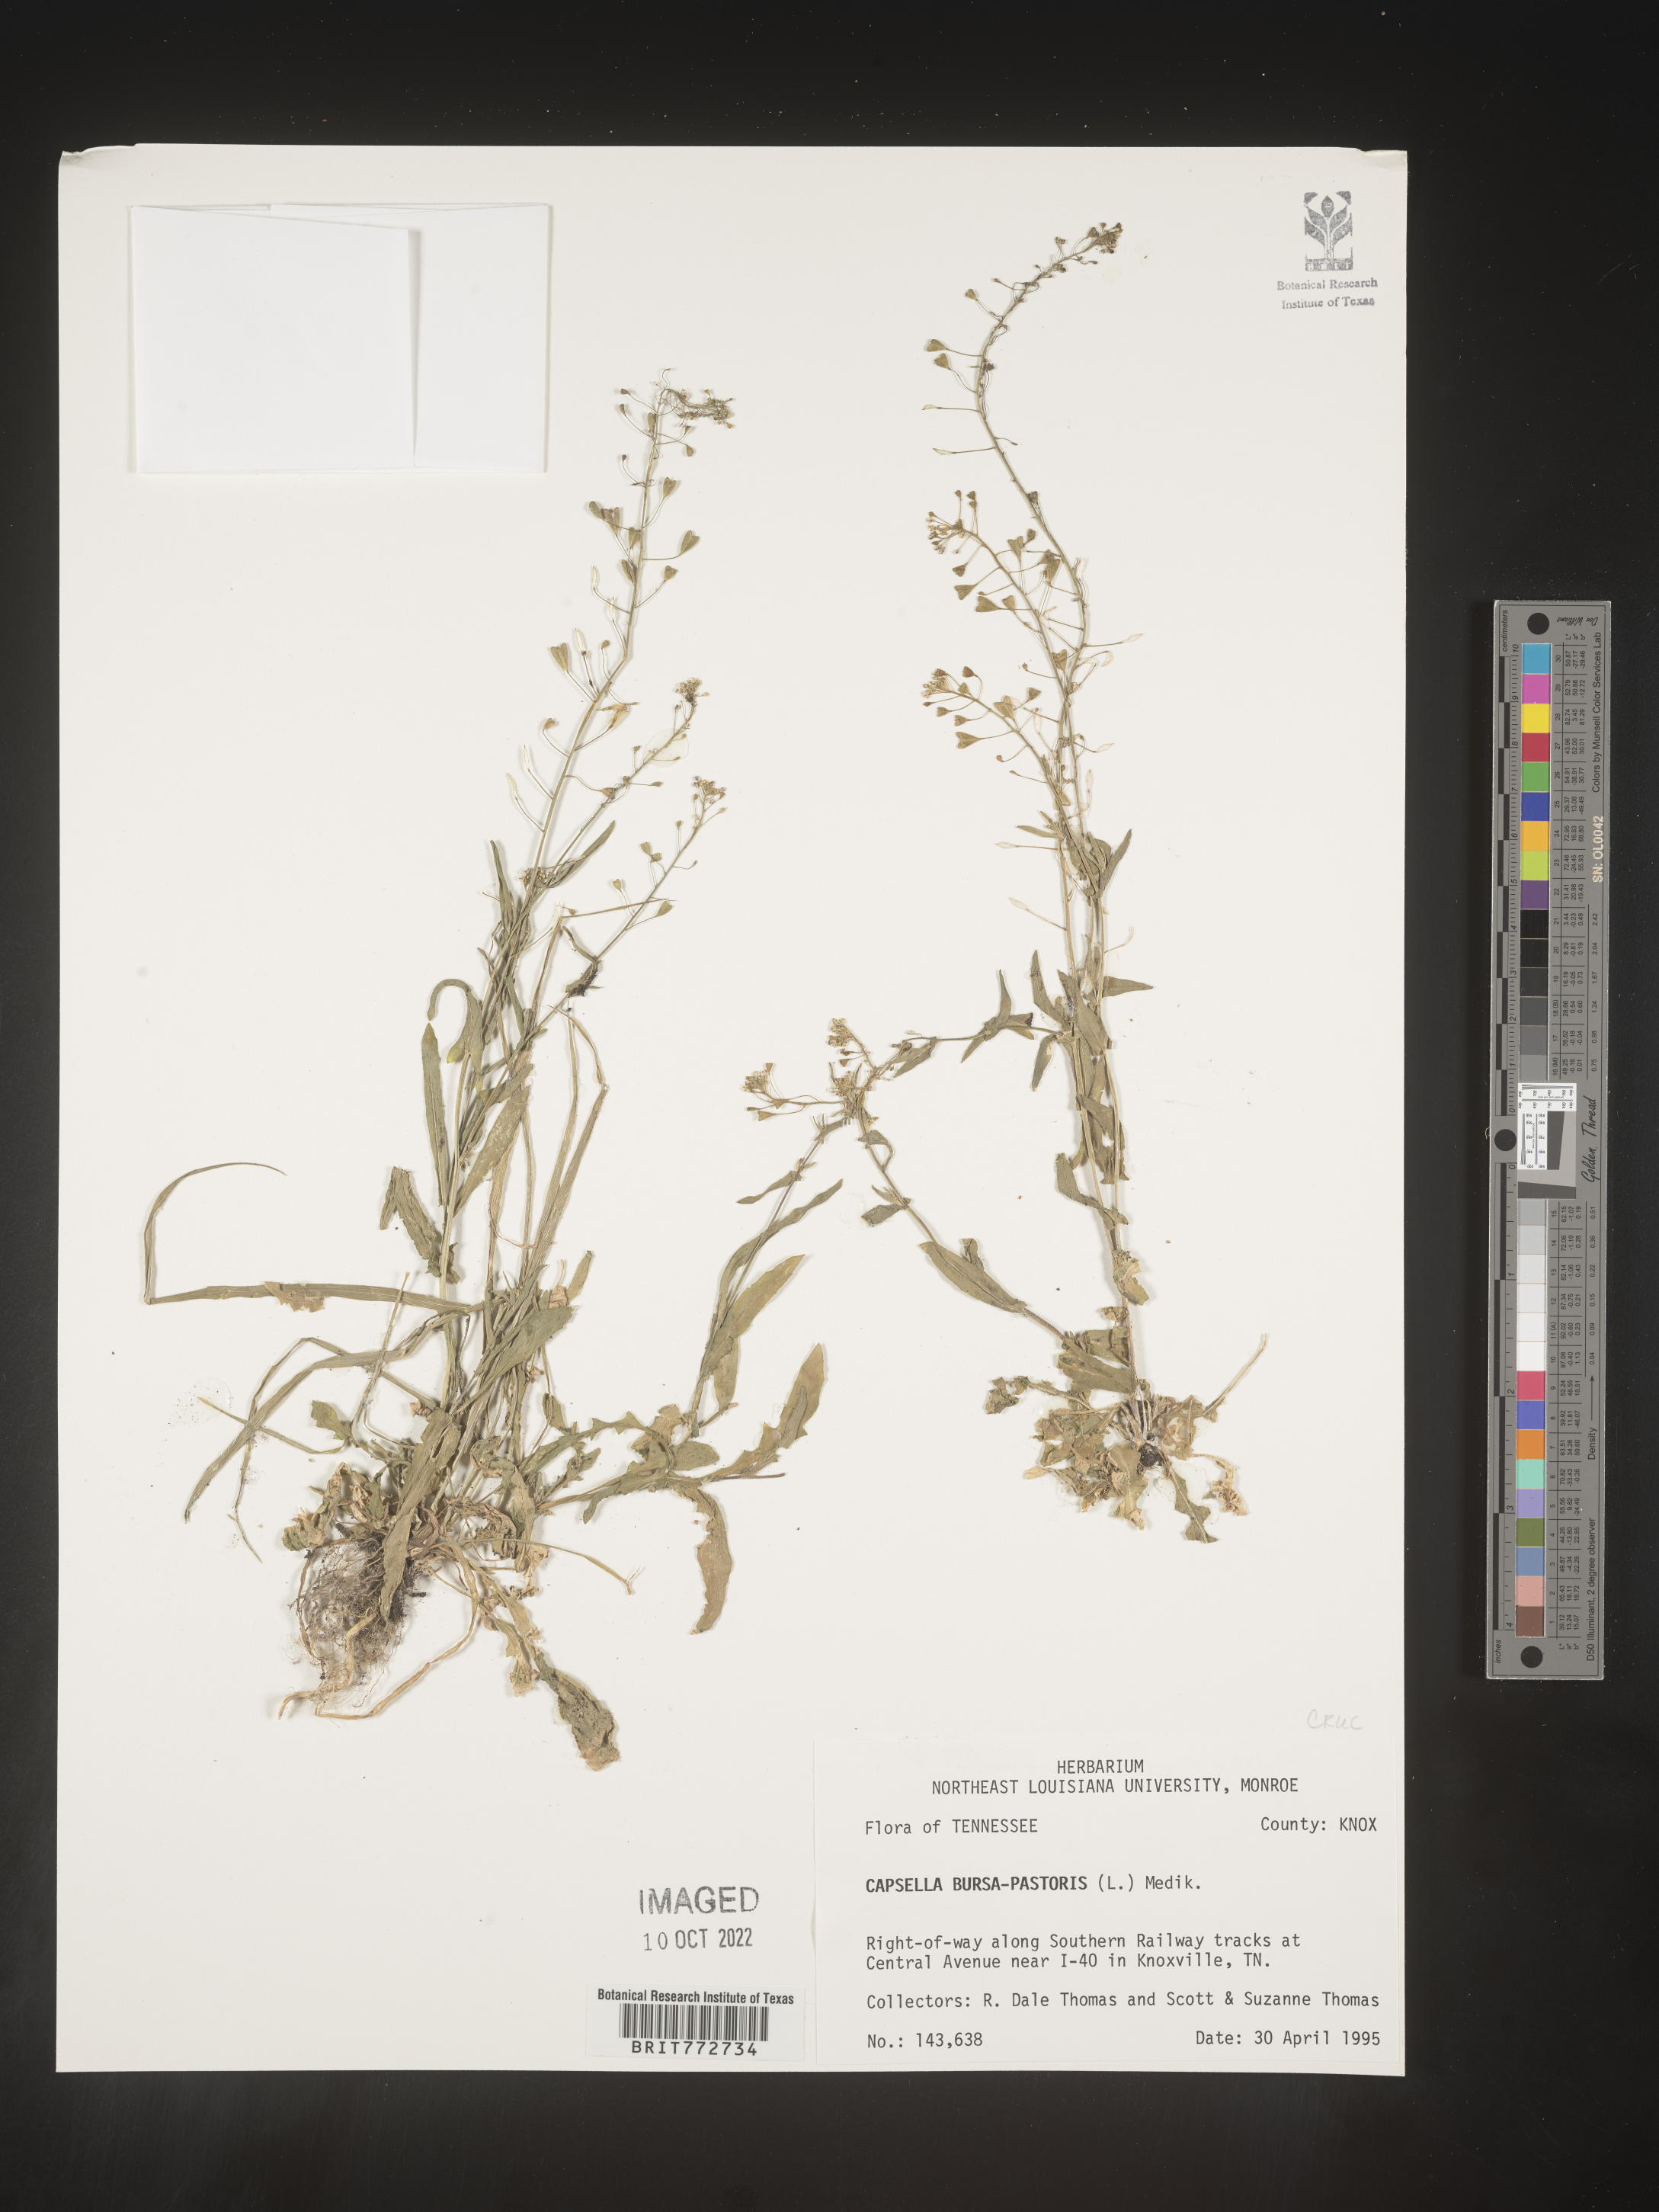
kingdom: Plantae
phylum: Tracheophyta
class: Magnoliopsida
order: Brassicales
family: Brassicaceae
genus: Capsella
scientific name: Capsella bursa-pastoris
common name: Shepherd's purse
